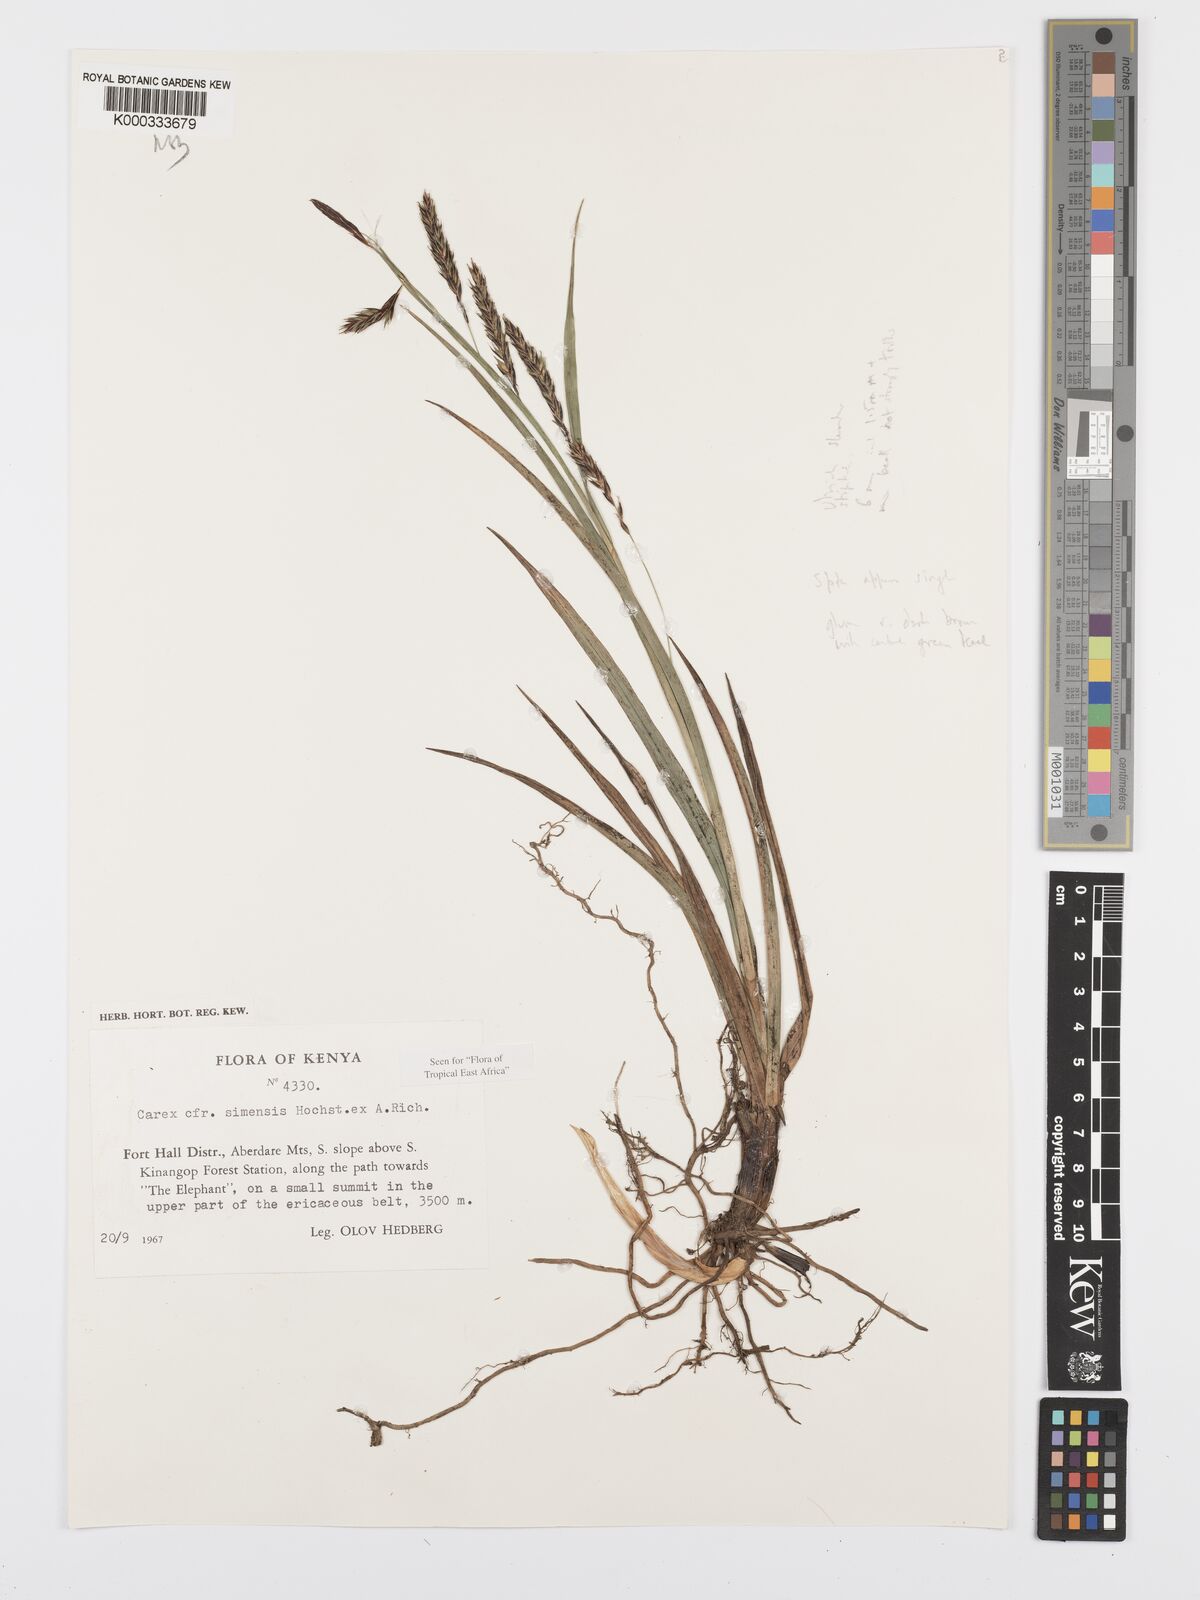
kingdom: Plantae
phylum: Tracheophyta
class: Liliopsida
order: Poales
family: Cyperaceae
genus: Carex
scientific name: Carex simensis
